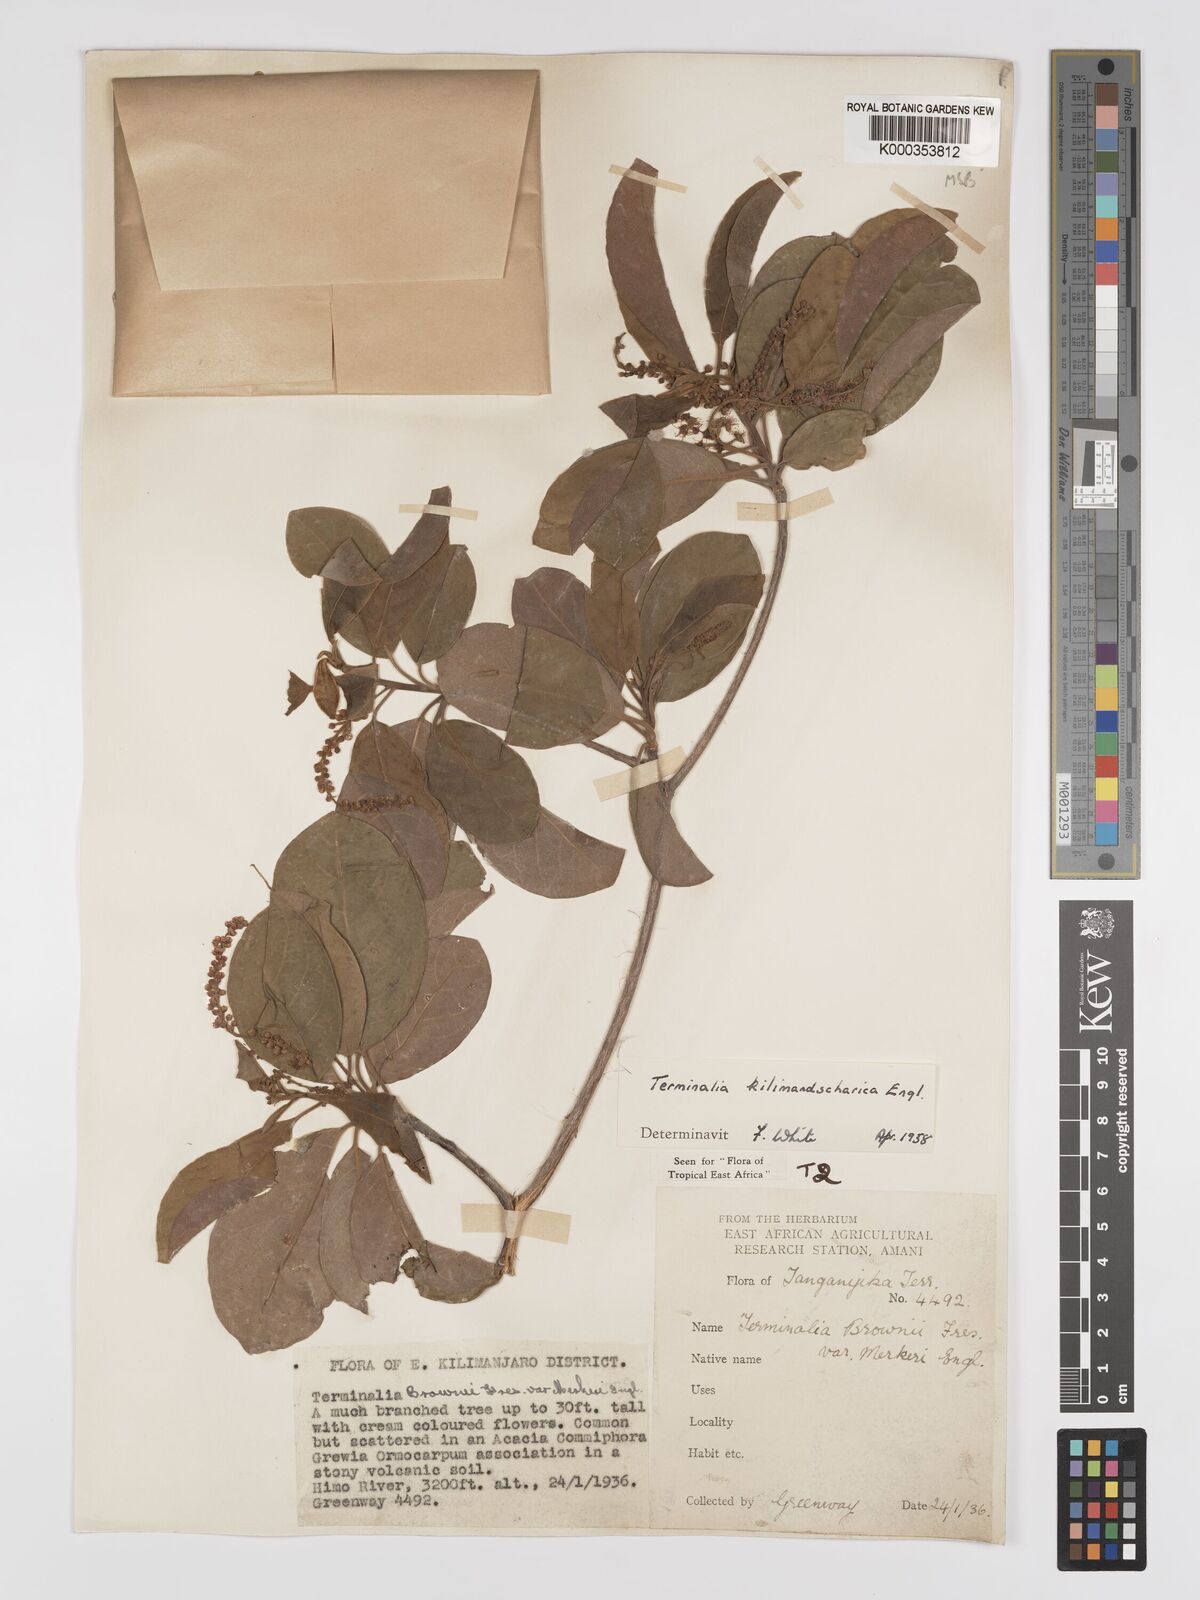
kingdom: Plantae
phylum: Tracheophyta
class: Magnoliopsida
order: Myrtales
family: Combretaceae
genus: Terminalia
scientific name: Terminalia kilimandscharica
